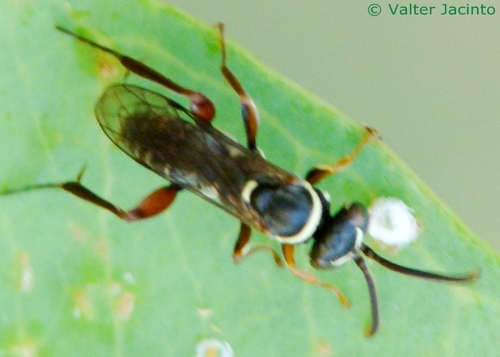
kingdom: Animalia
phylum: Arthropoda
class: Insecta
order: Hymenoptera
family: Pompilidae
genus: Ceropales
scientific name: Ceropales
